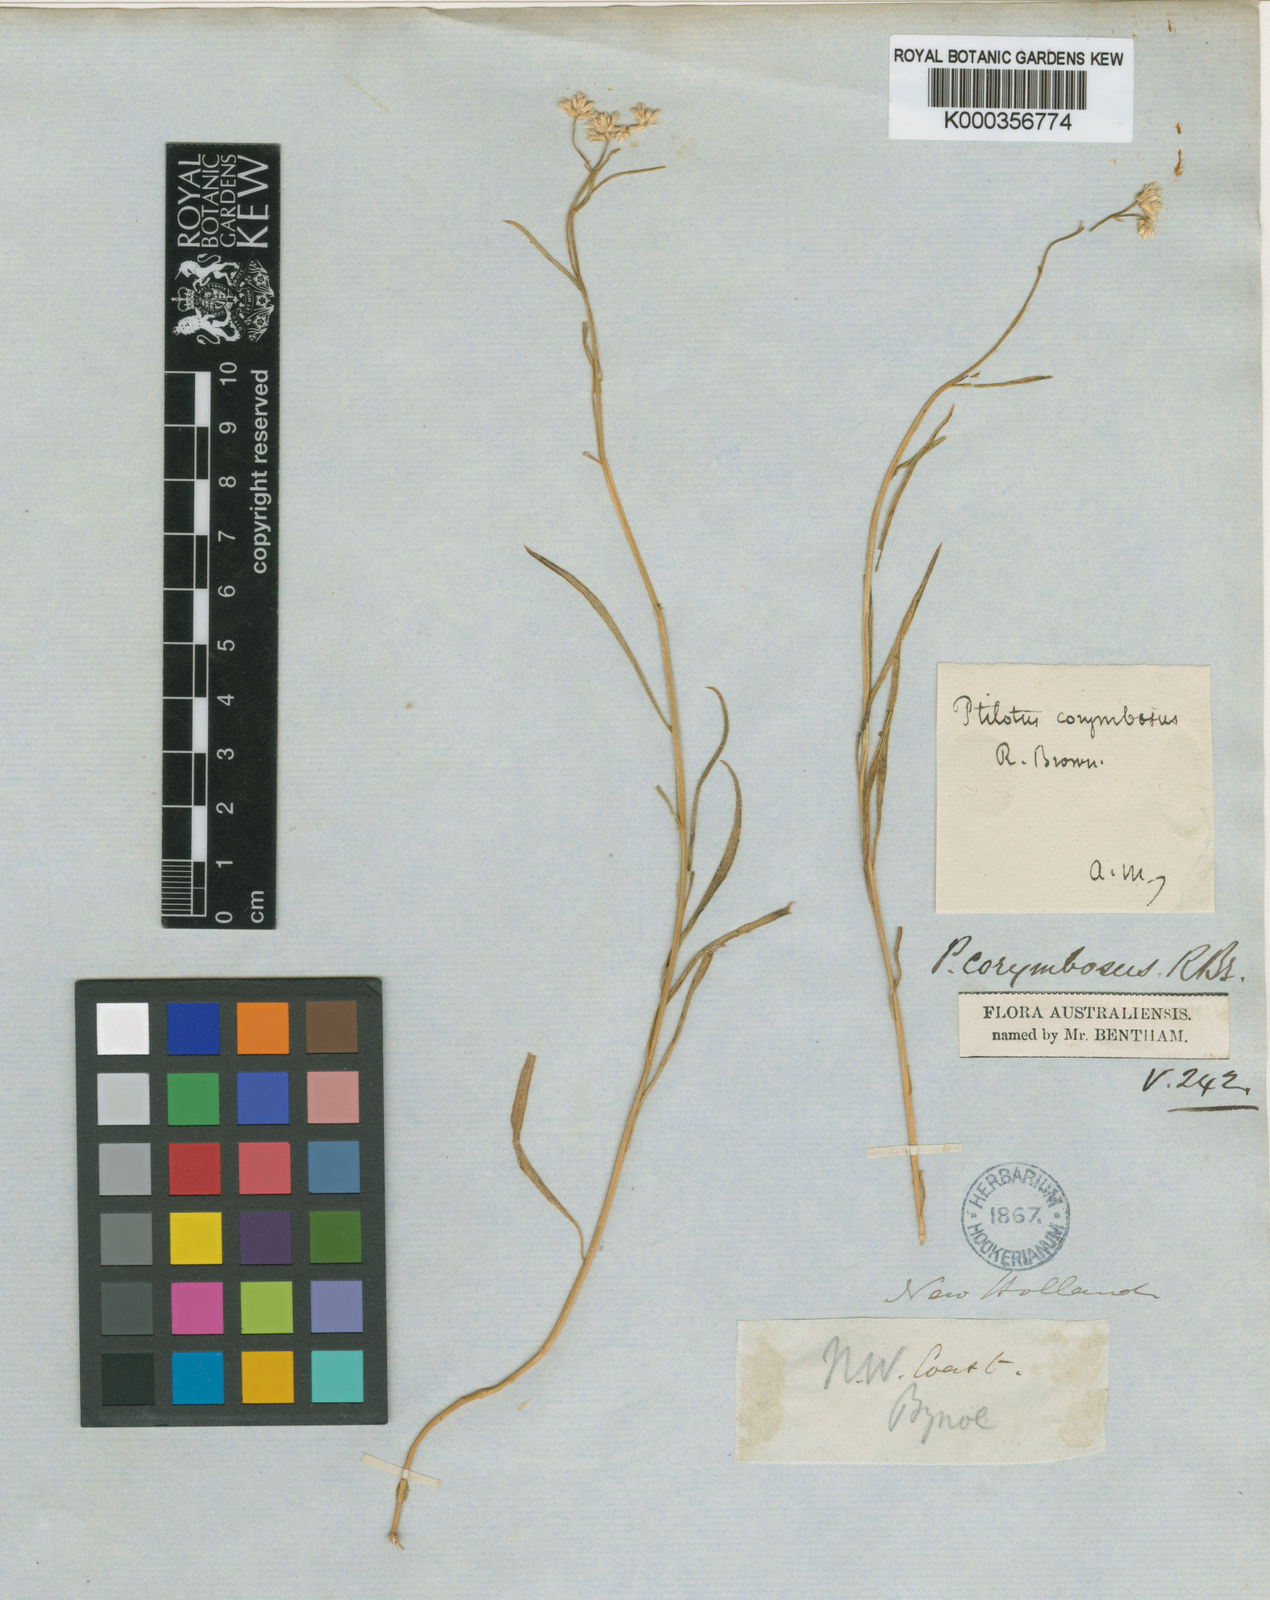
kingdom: Plantae
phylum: Tracheophyta
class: Magnoliopsida
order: Caryophyllales
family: Amaranthaceae
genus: Ptilotus
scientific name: Ptilotus corymbosus
